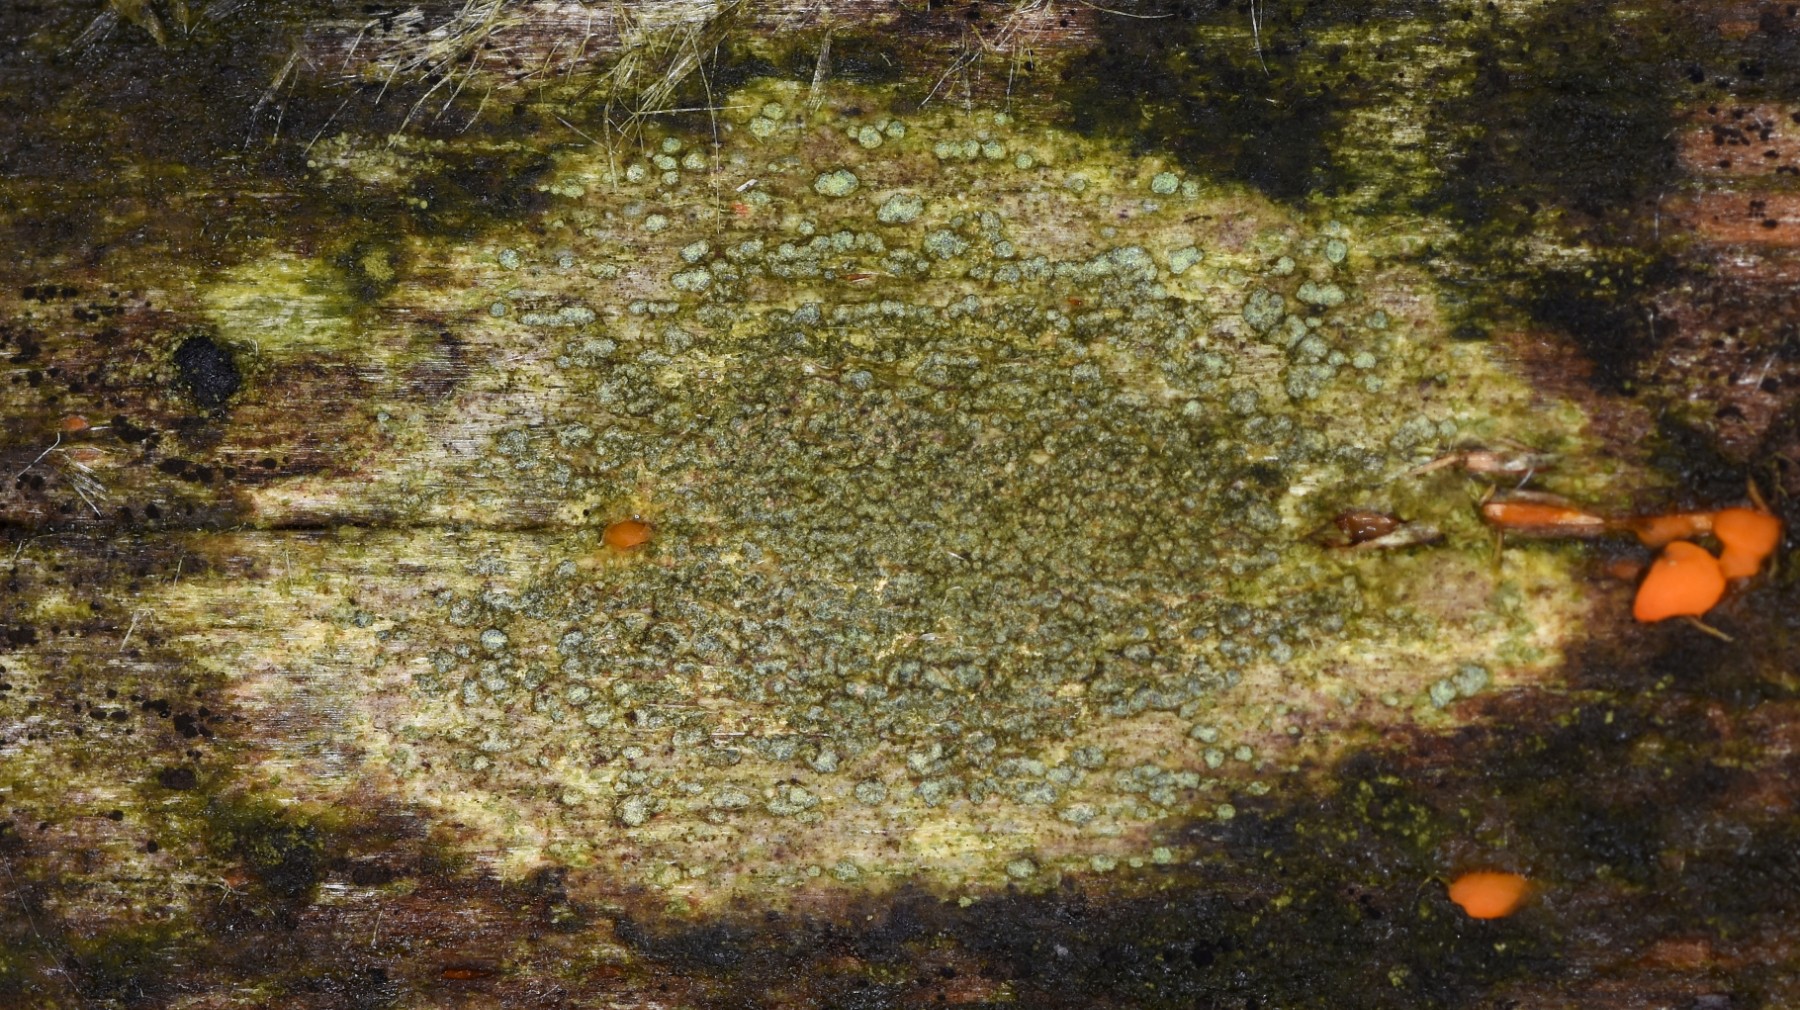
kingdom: Fungi
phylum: Ascomycota
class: Lecanoromycetes
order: Caliciales
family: Caliciaceae
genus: Buellia
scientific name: Buellia griseovirens
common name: grågrøn sortskivelav
